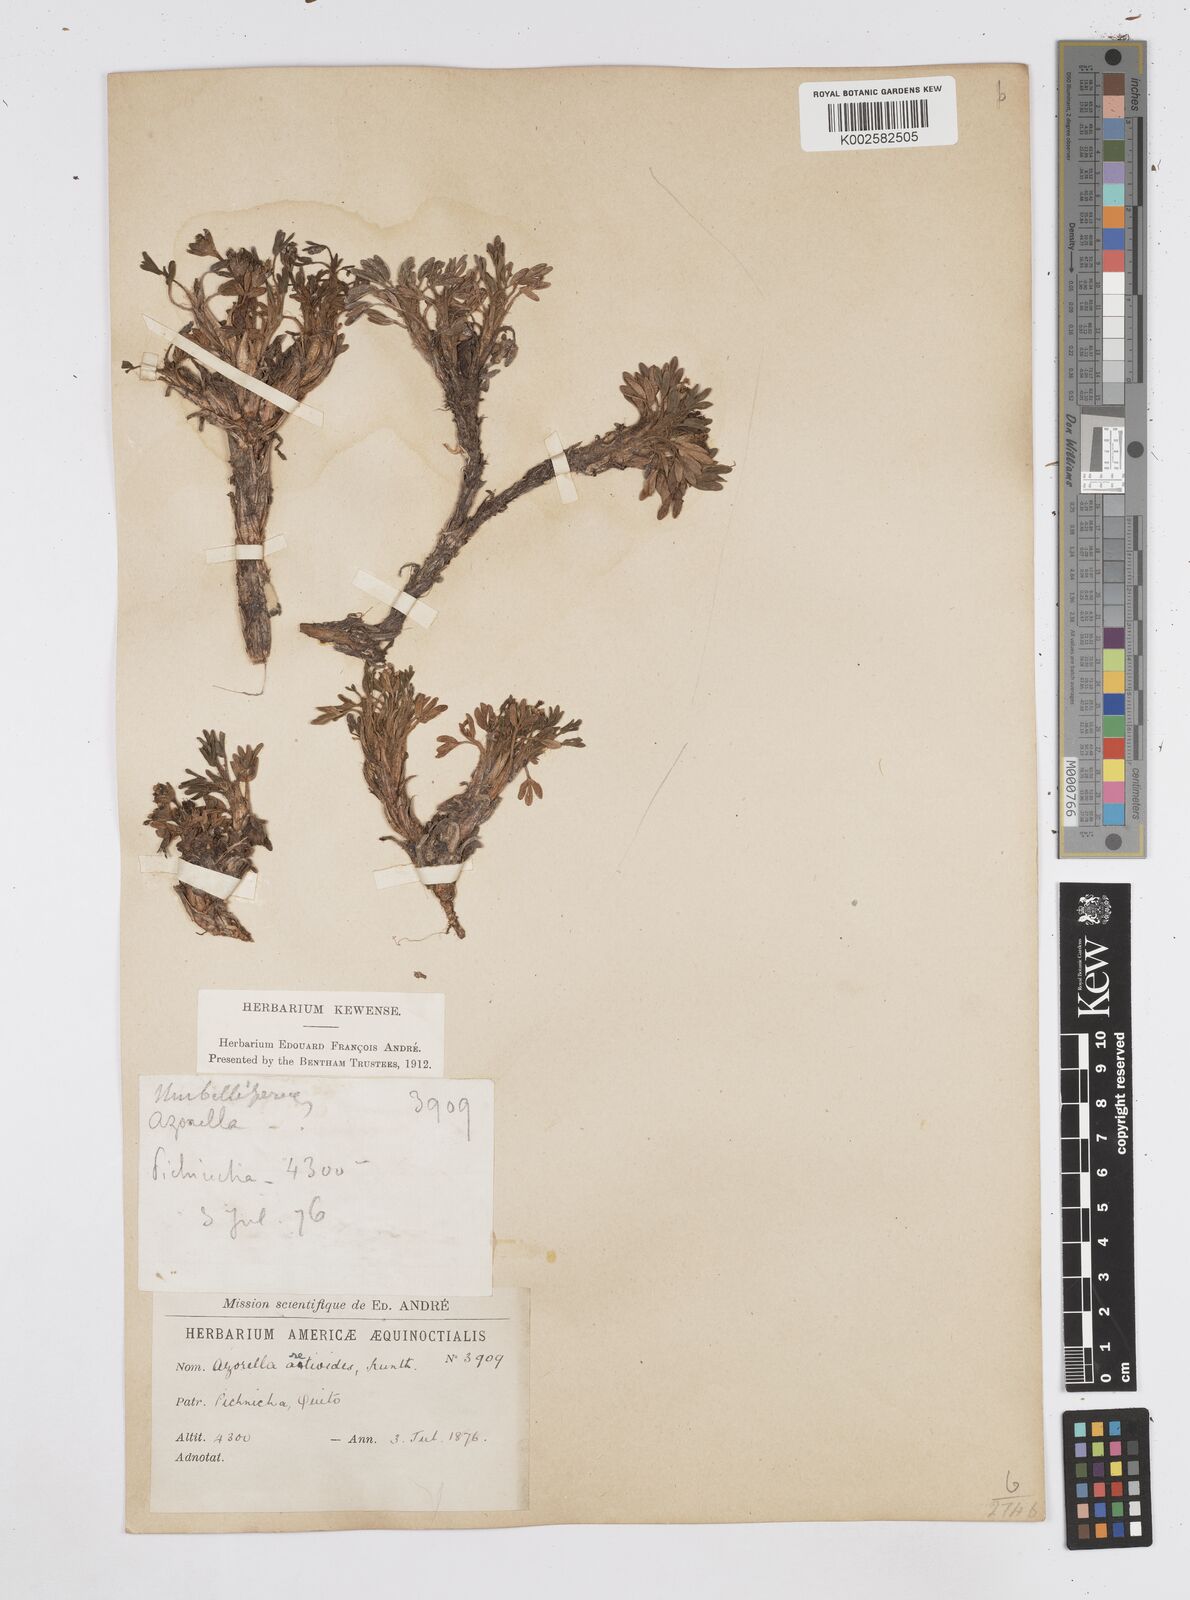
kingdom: Plantae
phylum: Tracheophyta
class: Magnoliopsida
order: Apiales
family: Apiaceae
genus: Azorella
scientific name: Azorella aretioides
